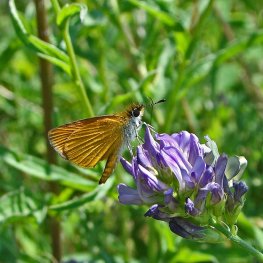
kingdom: Animalia
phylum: Arthropoda
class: Insecta
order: Lepidoptera
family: Hesperiidae
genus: Ancyloxypha
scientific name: Ancyloxypha numitor
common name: Least Skipper
